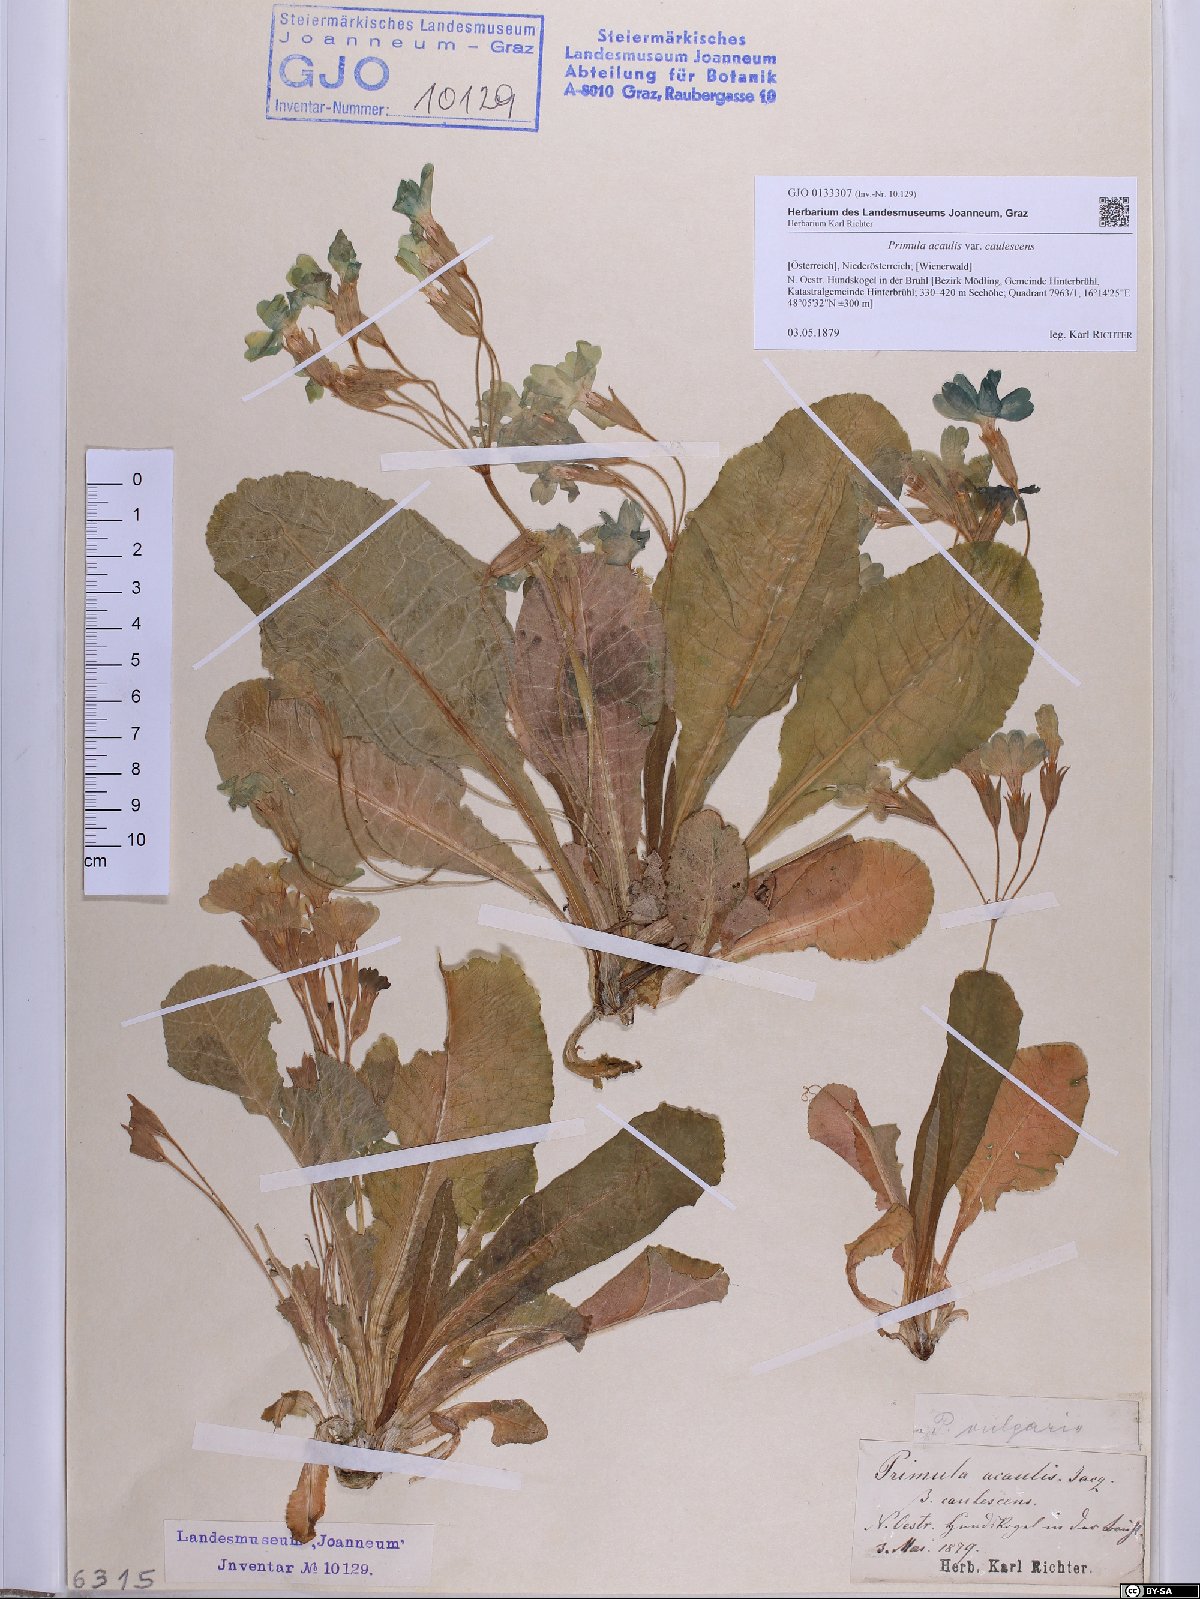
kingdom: Plantae
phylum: Tracheophyta
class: Magnoliopsida
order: Ericales
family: Primulaceae
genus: Primula
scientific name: Primula vulgaris
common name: Primrose
